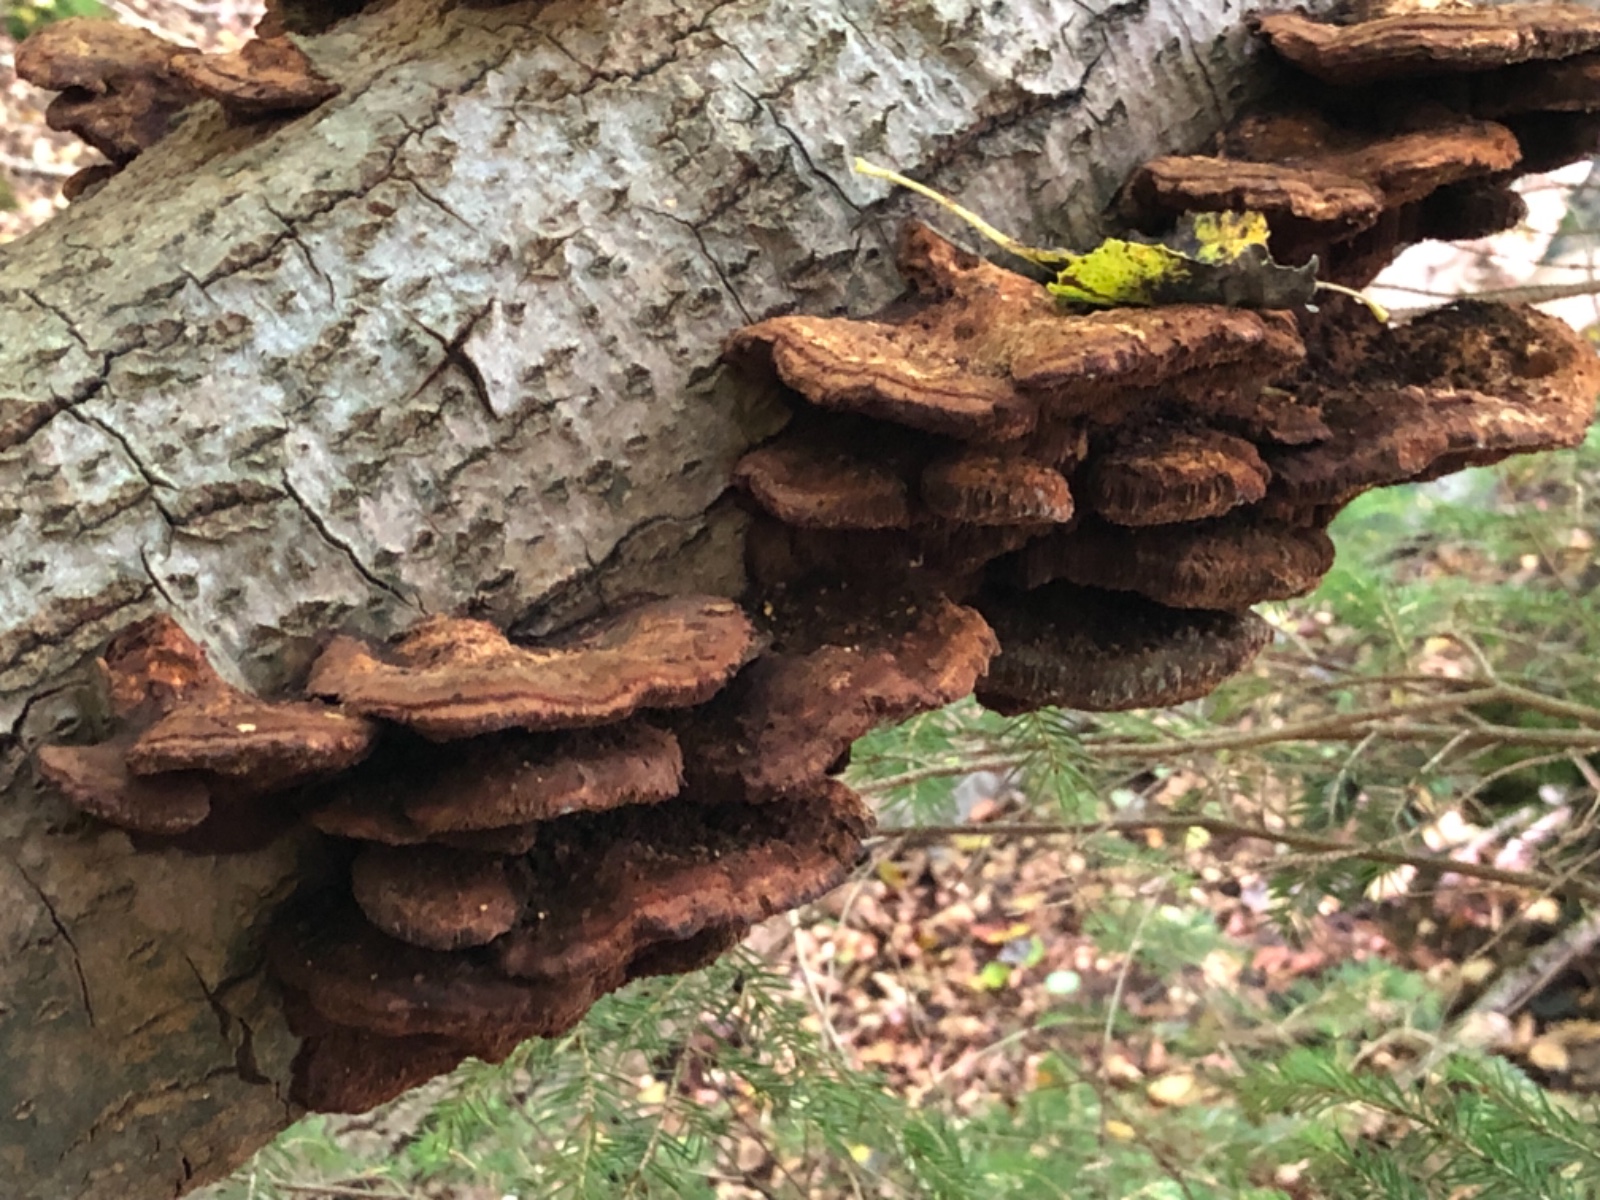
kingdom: Fungi
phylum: Basidiomycota
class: Agaricomycetes
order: Hymenochaetales
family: Hymenochaetaceae
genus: Inocutis
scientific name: Inocutis rheades
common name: ræve-spejlporesvamp
